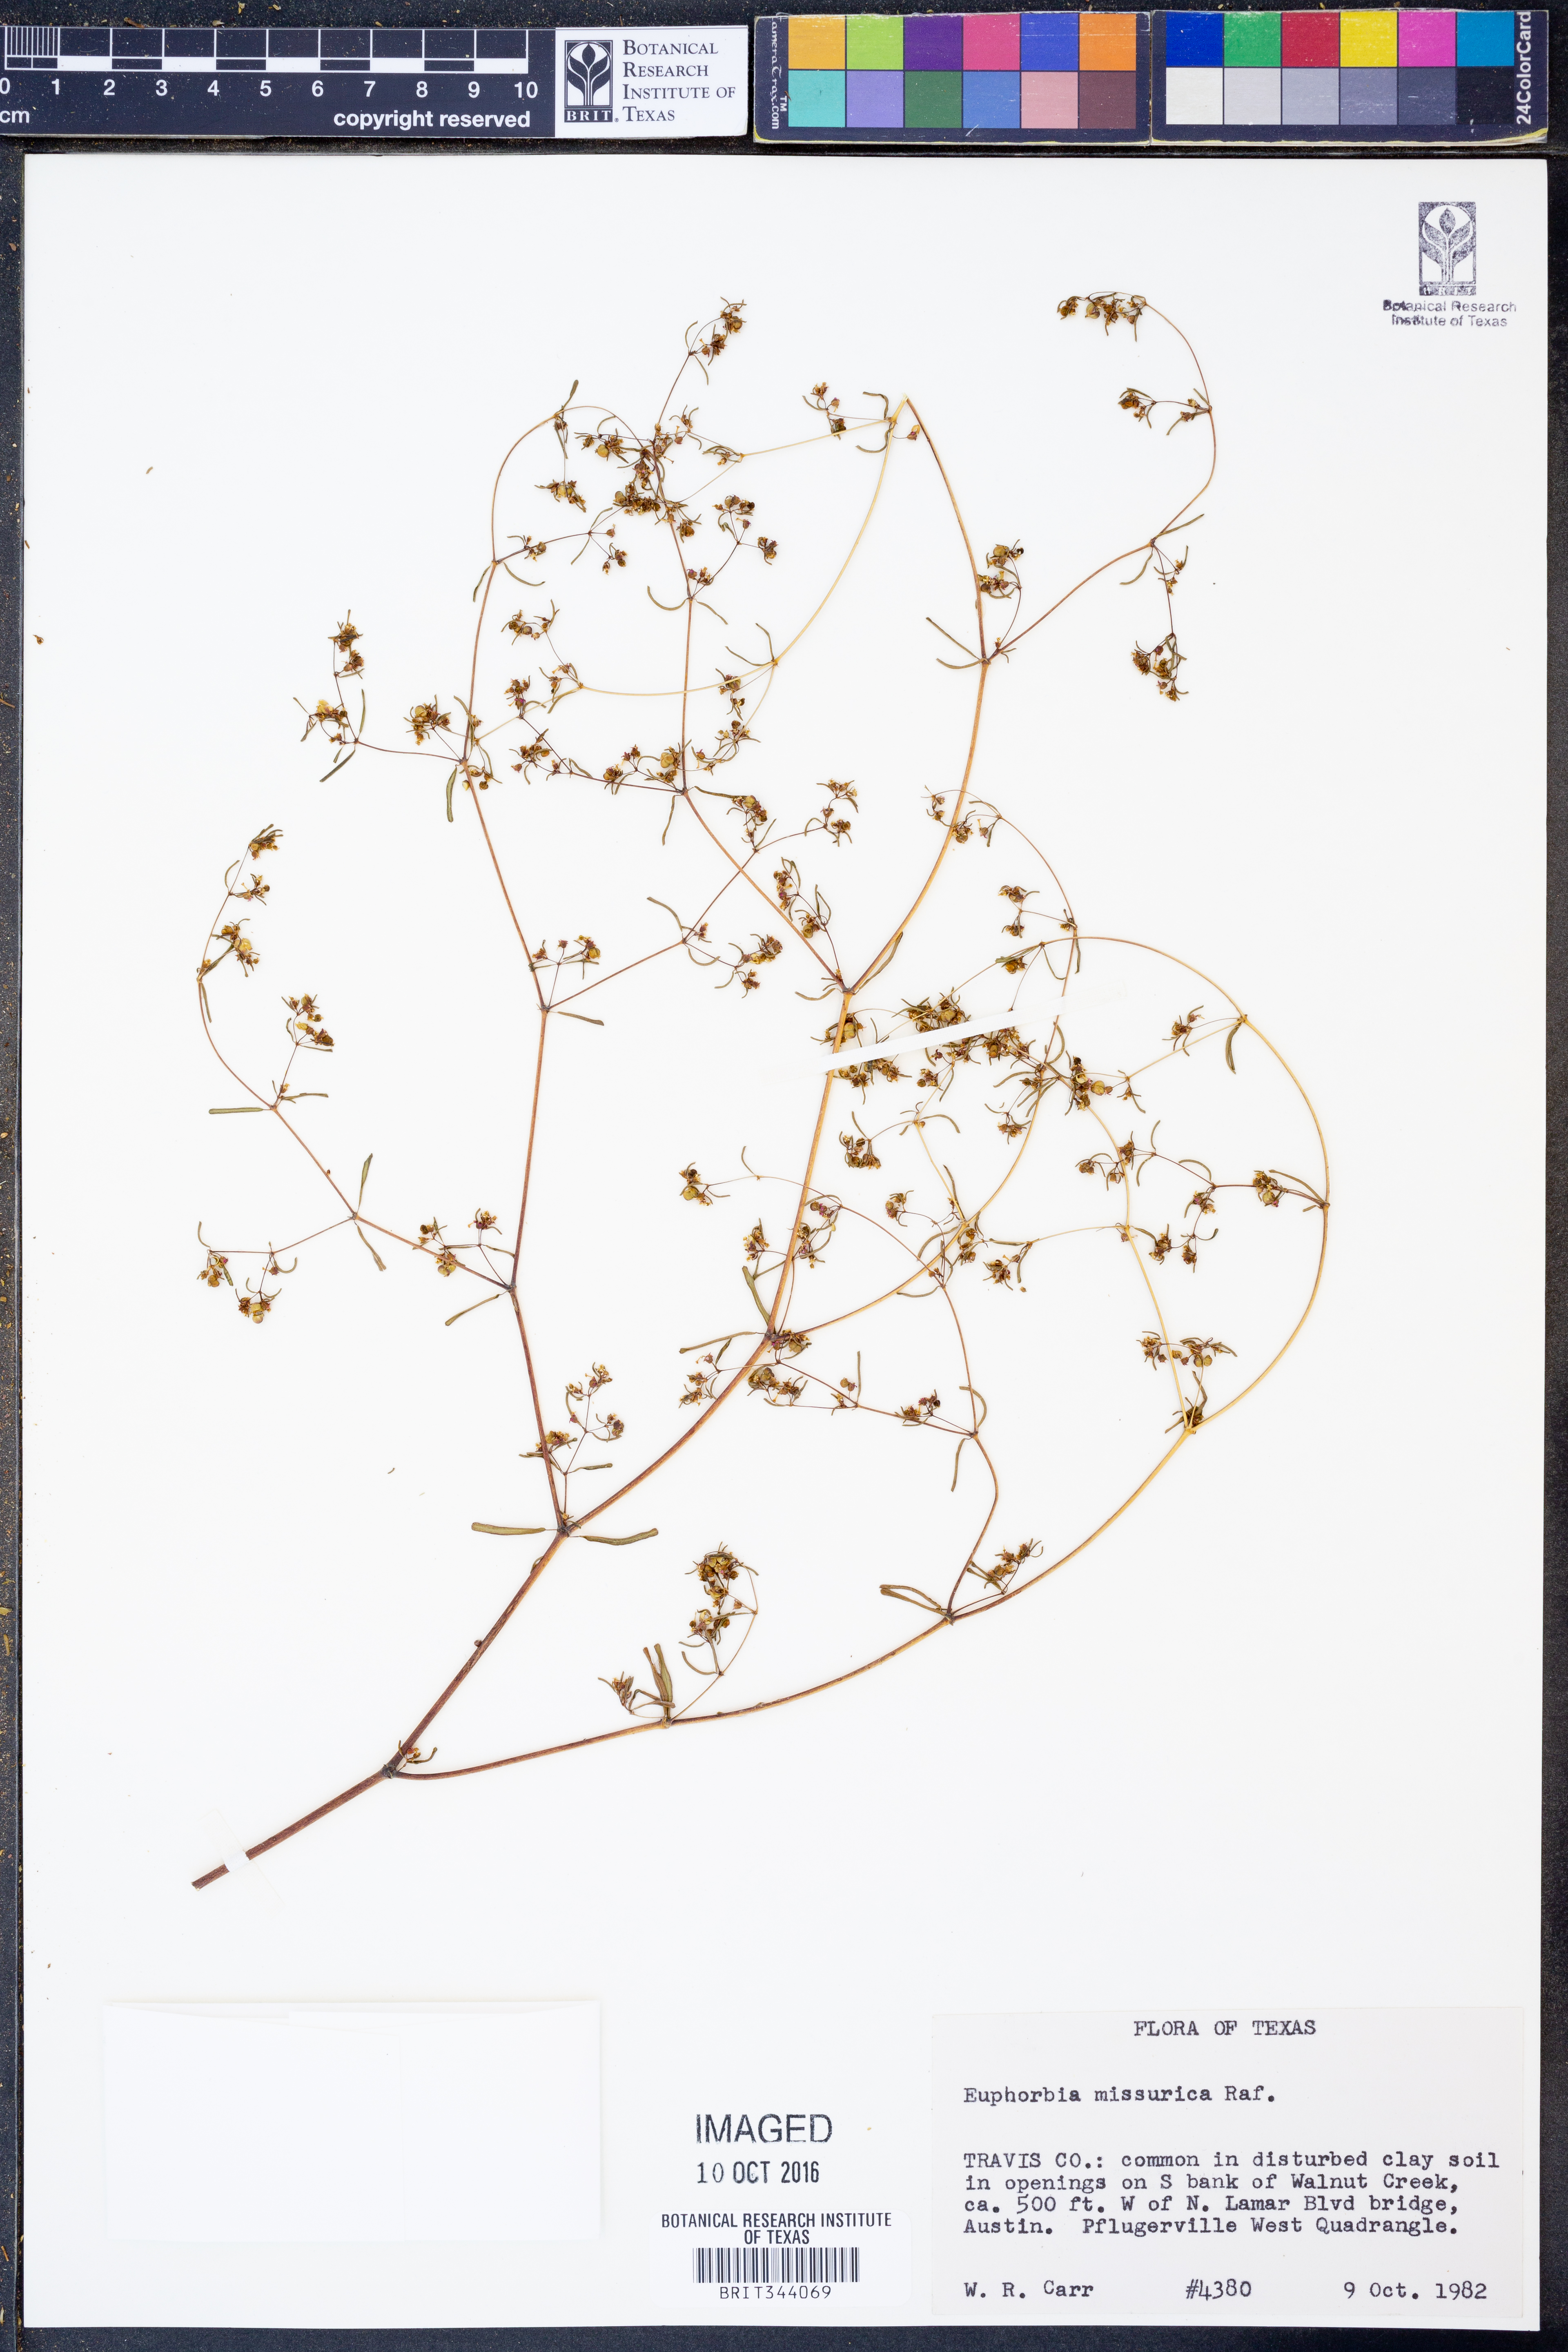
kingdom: Plantae
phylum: Tracheophyta
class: Magnoliopsida
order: Malpighiales
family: Euphorbiaceae
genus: Euphorbia
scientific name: Euphorbia missurica
